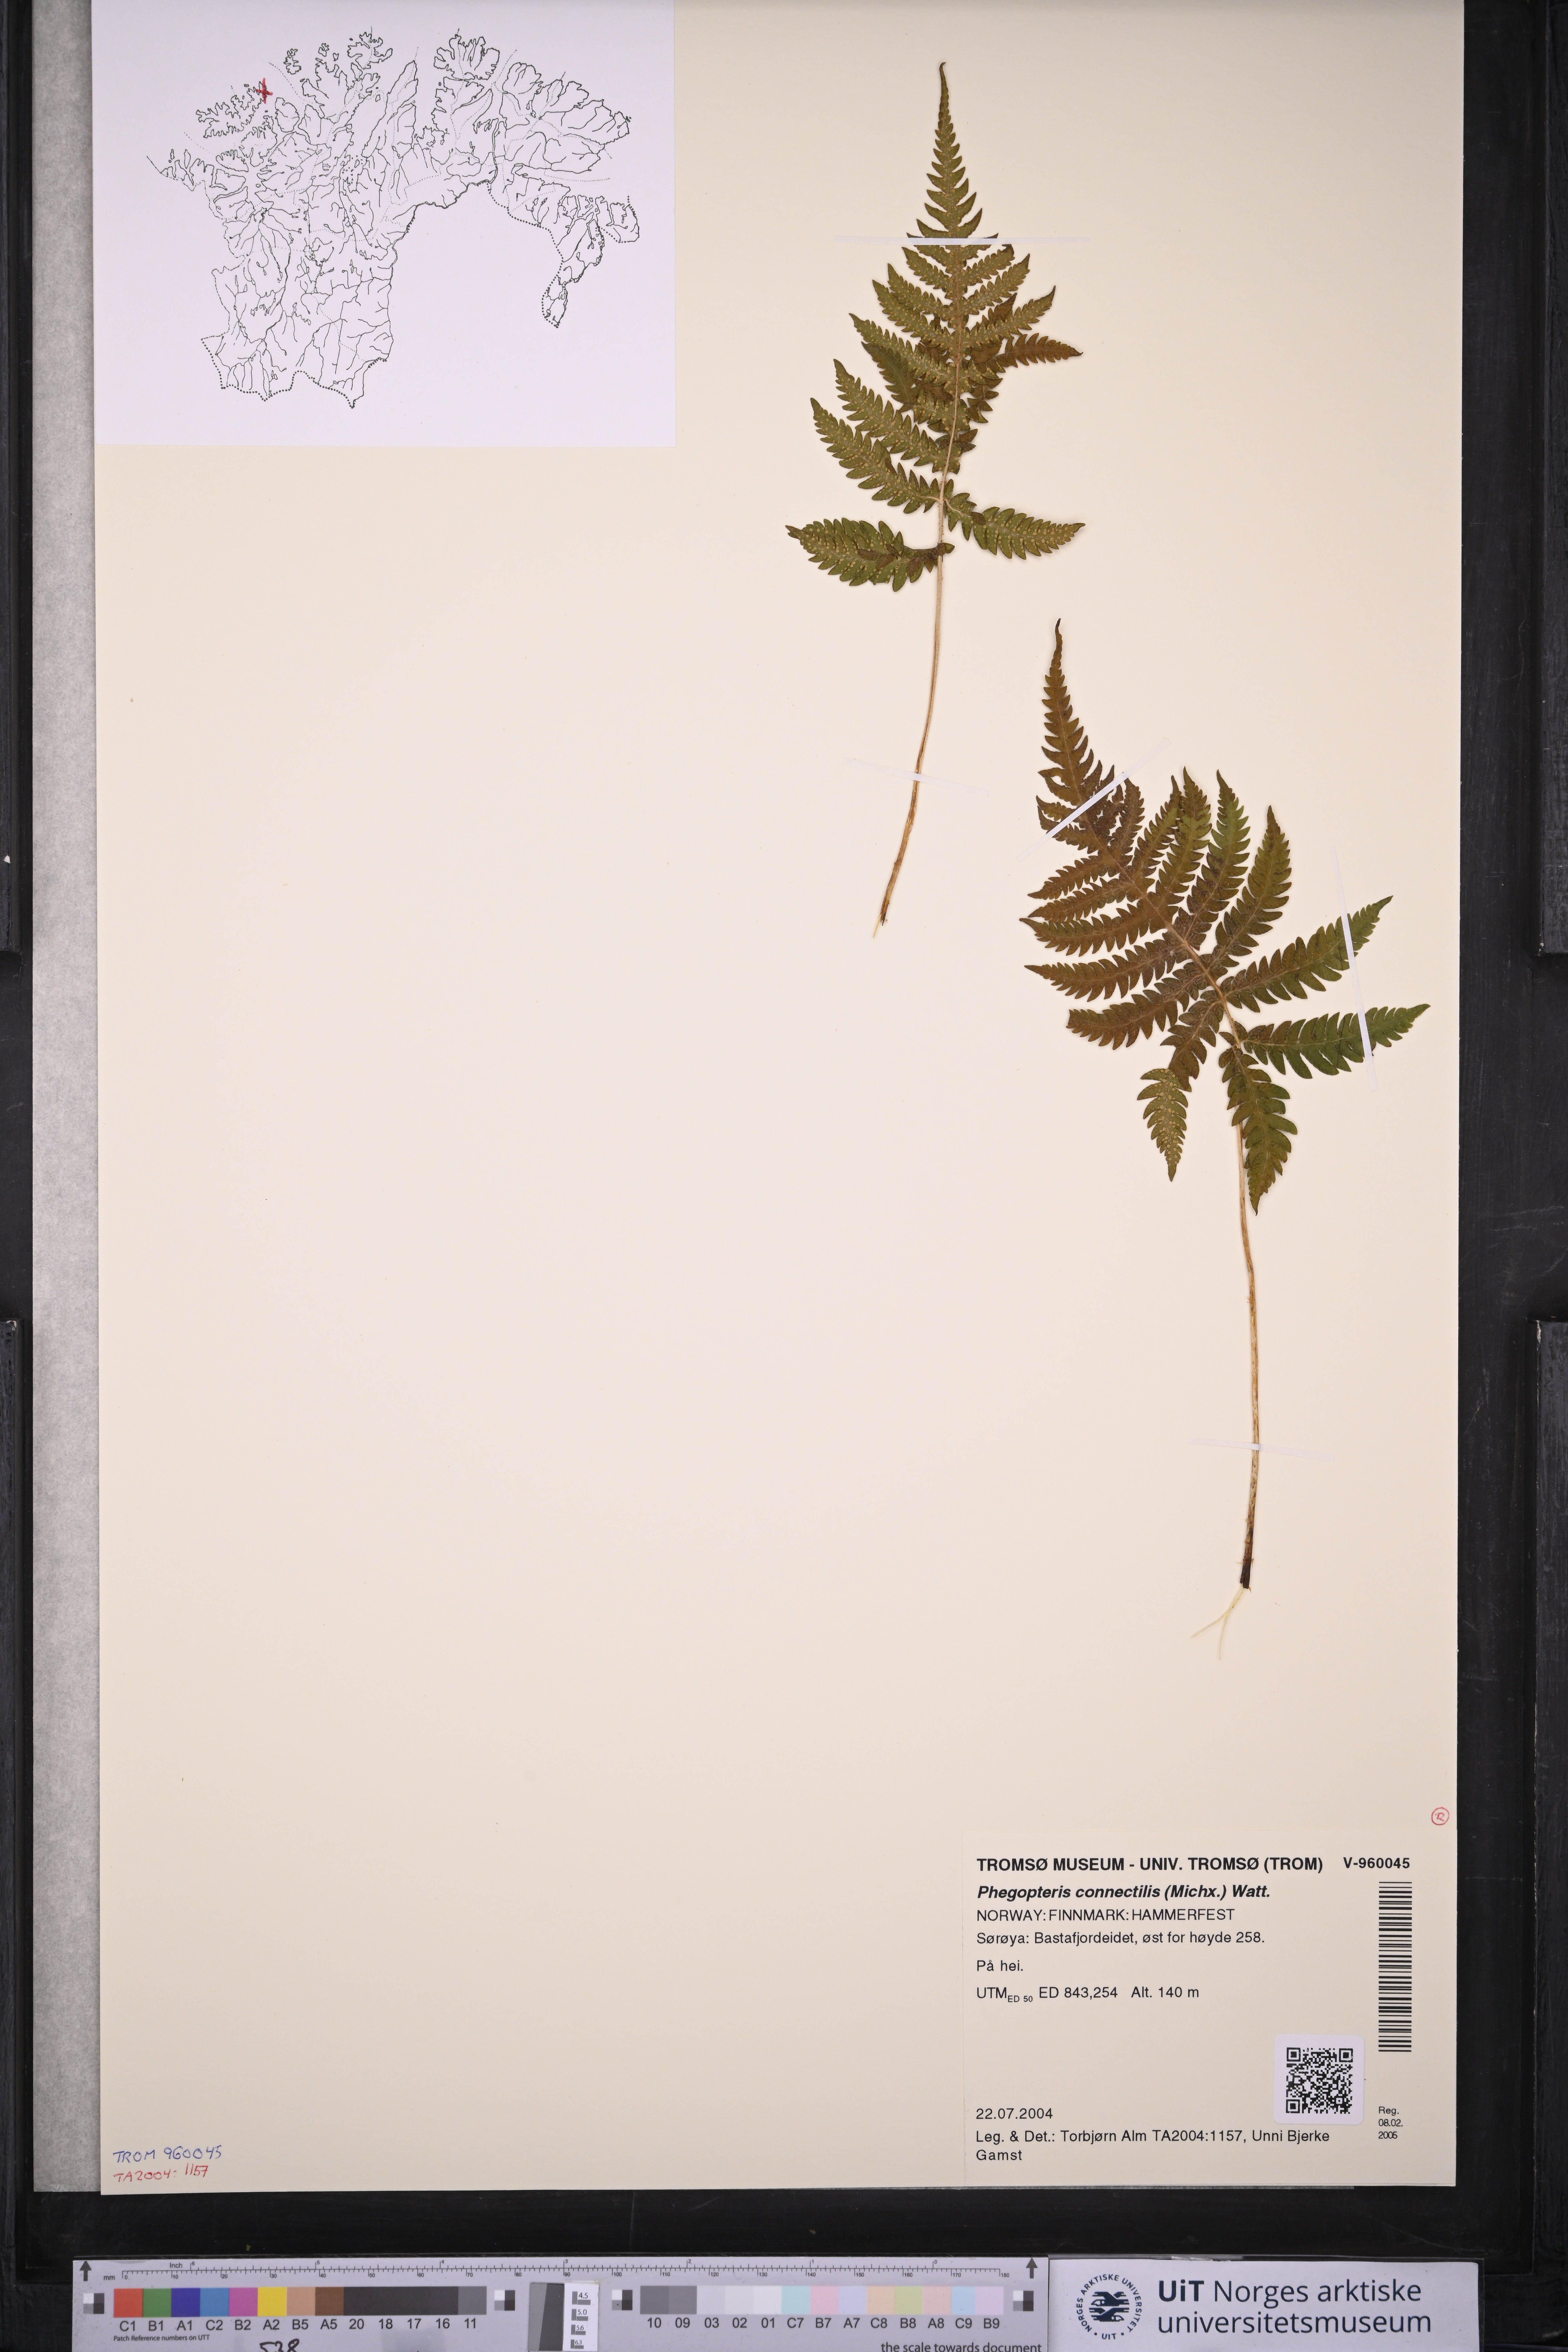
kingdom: Plantae
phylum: Tracheophyta
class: Polypodiopsida
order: Polypodiales
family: Thelypteridaceae
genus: Phegopteris
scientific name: Phegopteris connectilis
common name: Beech fern
